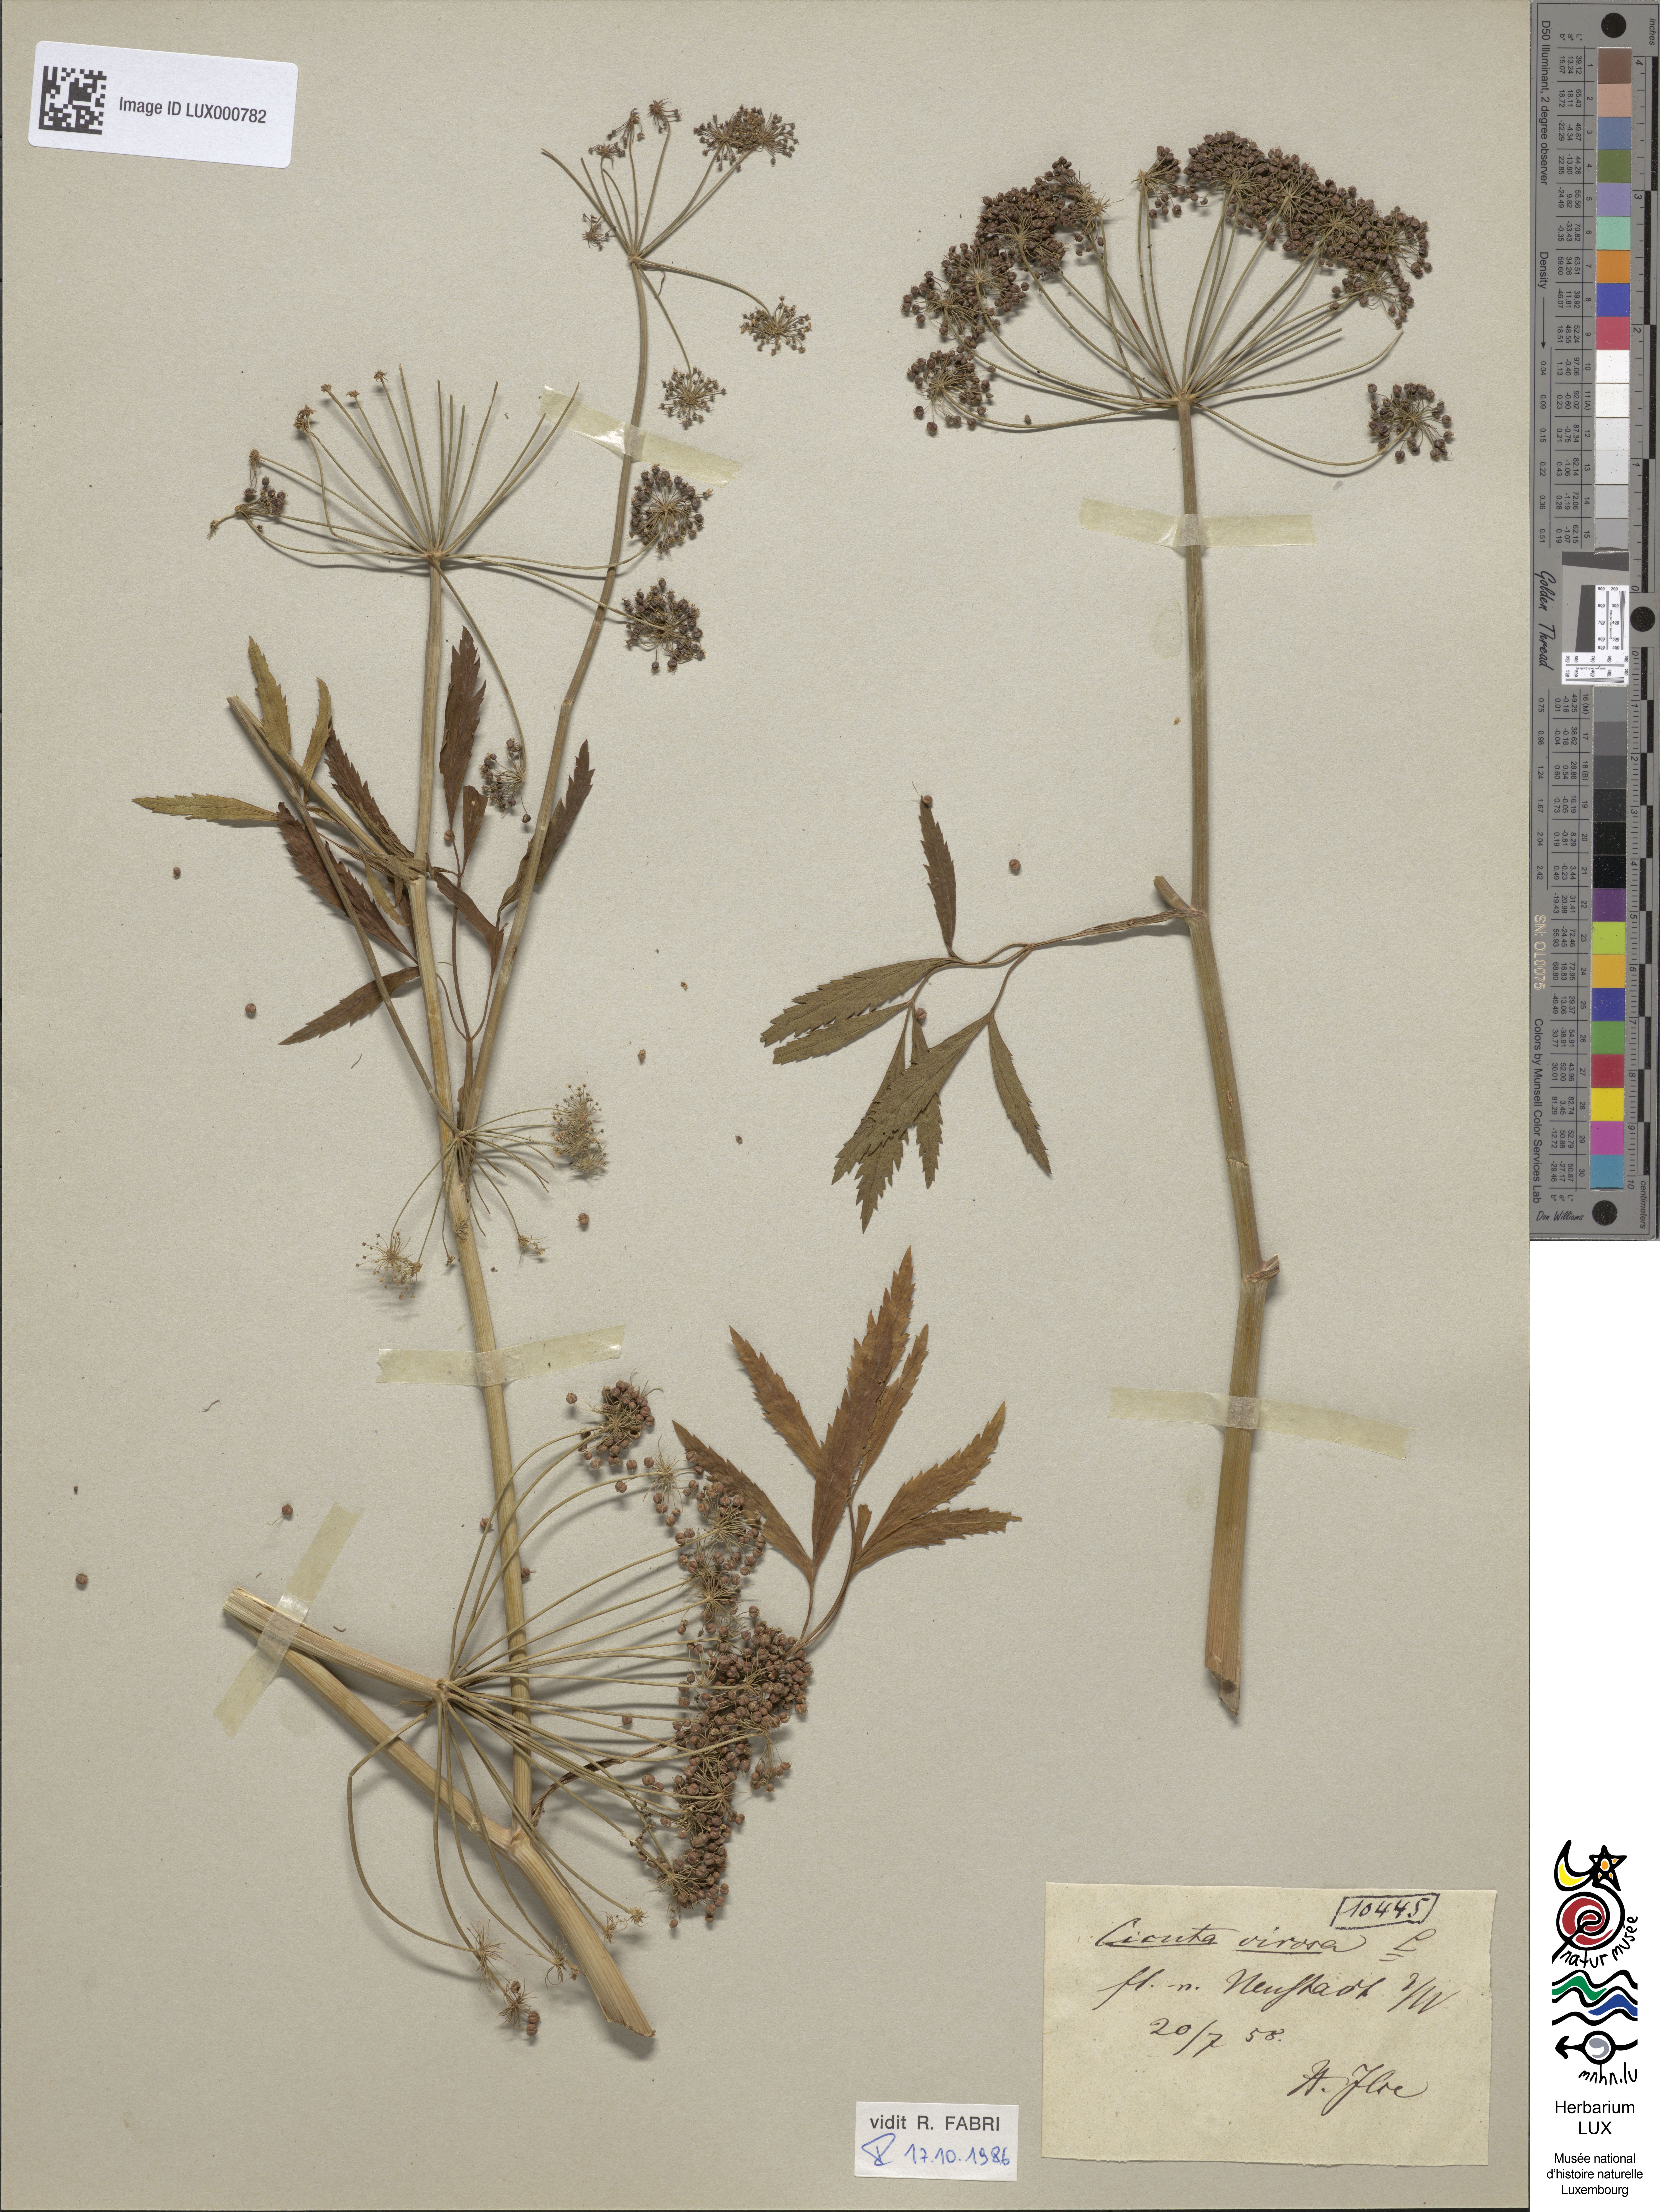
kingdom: Plantae
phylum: Tracheophyta
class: Magnoliopsida
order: Apiales
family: Apiaceae
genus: Cicuta
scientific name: Cicuta virosa
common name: Cowbane
